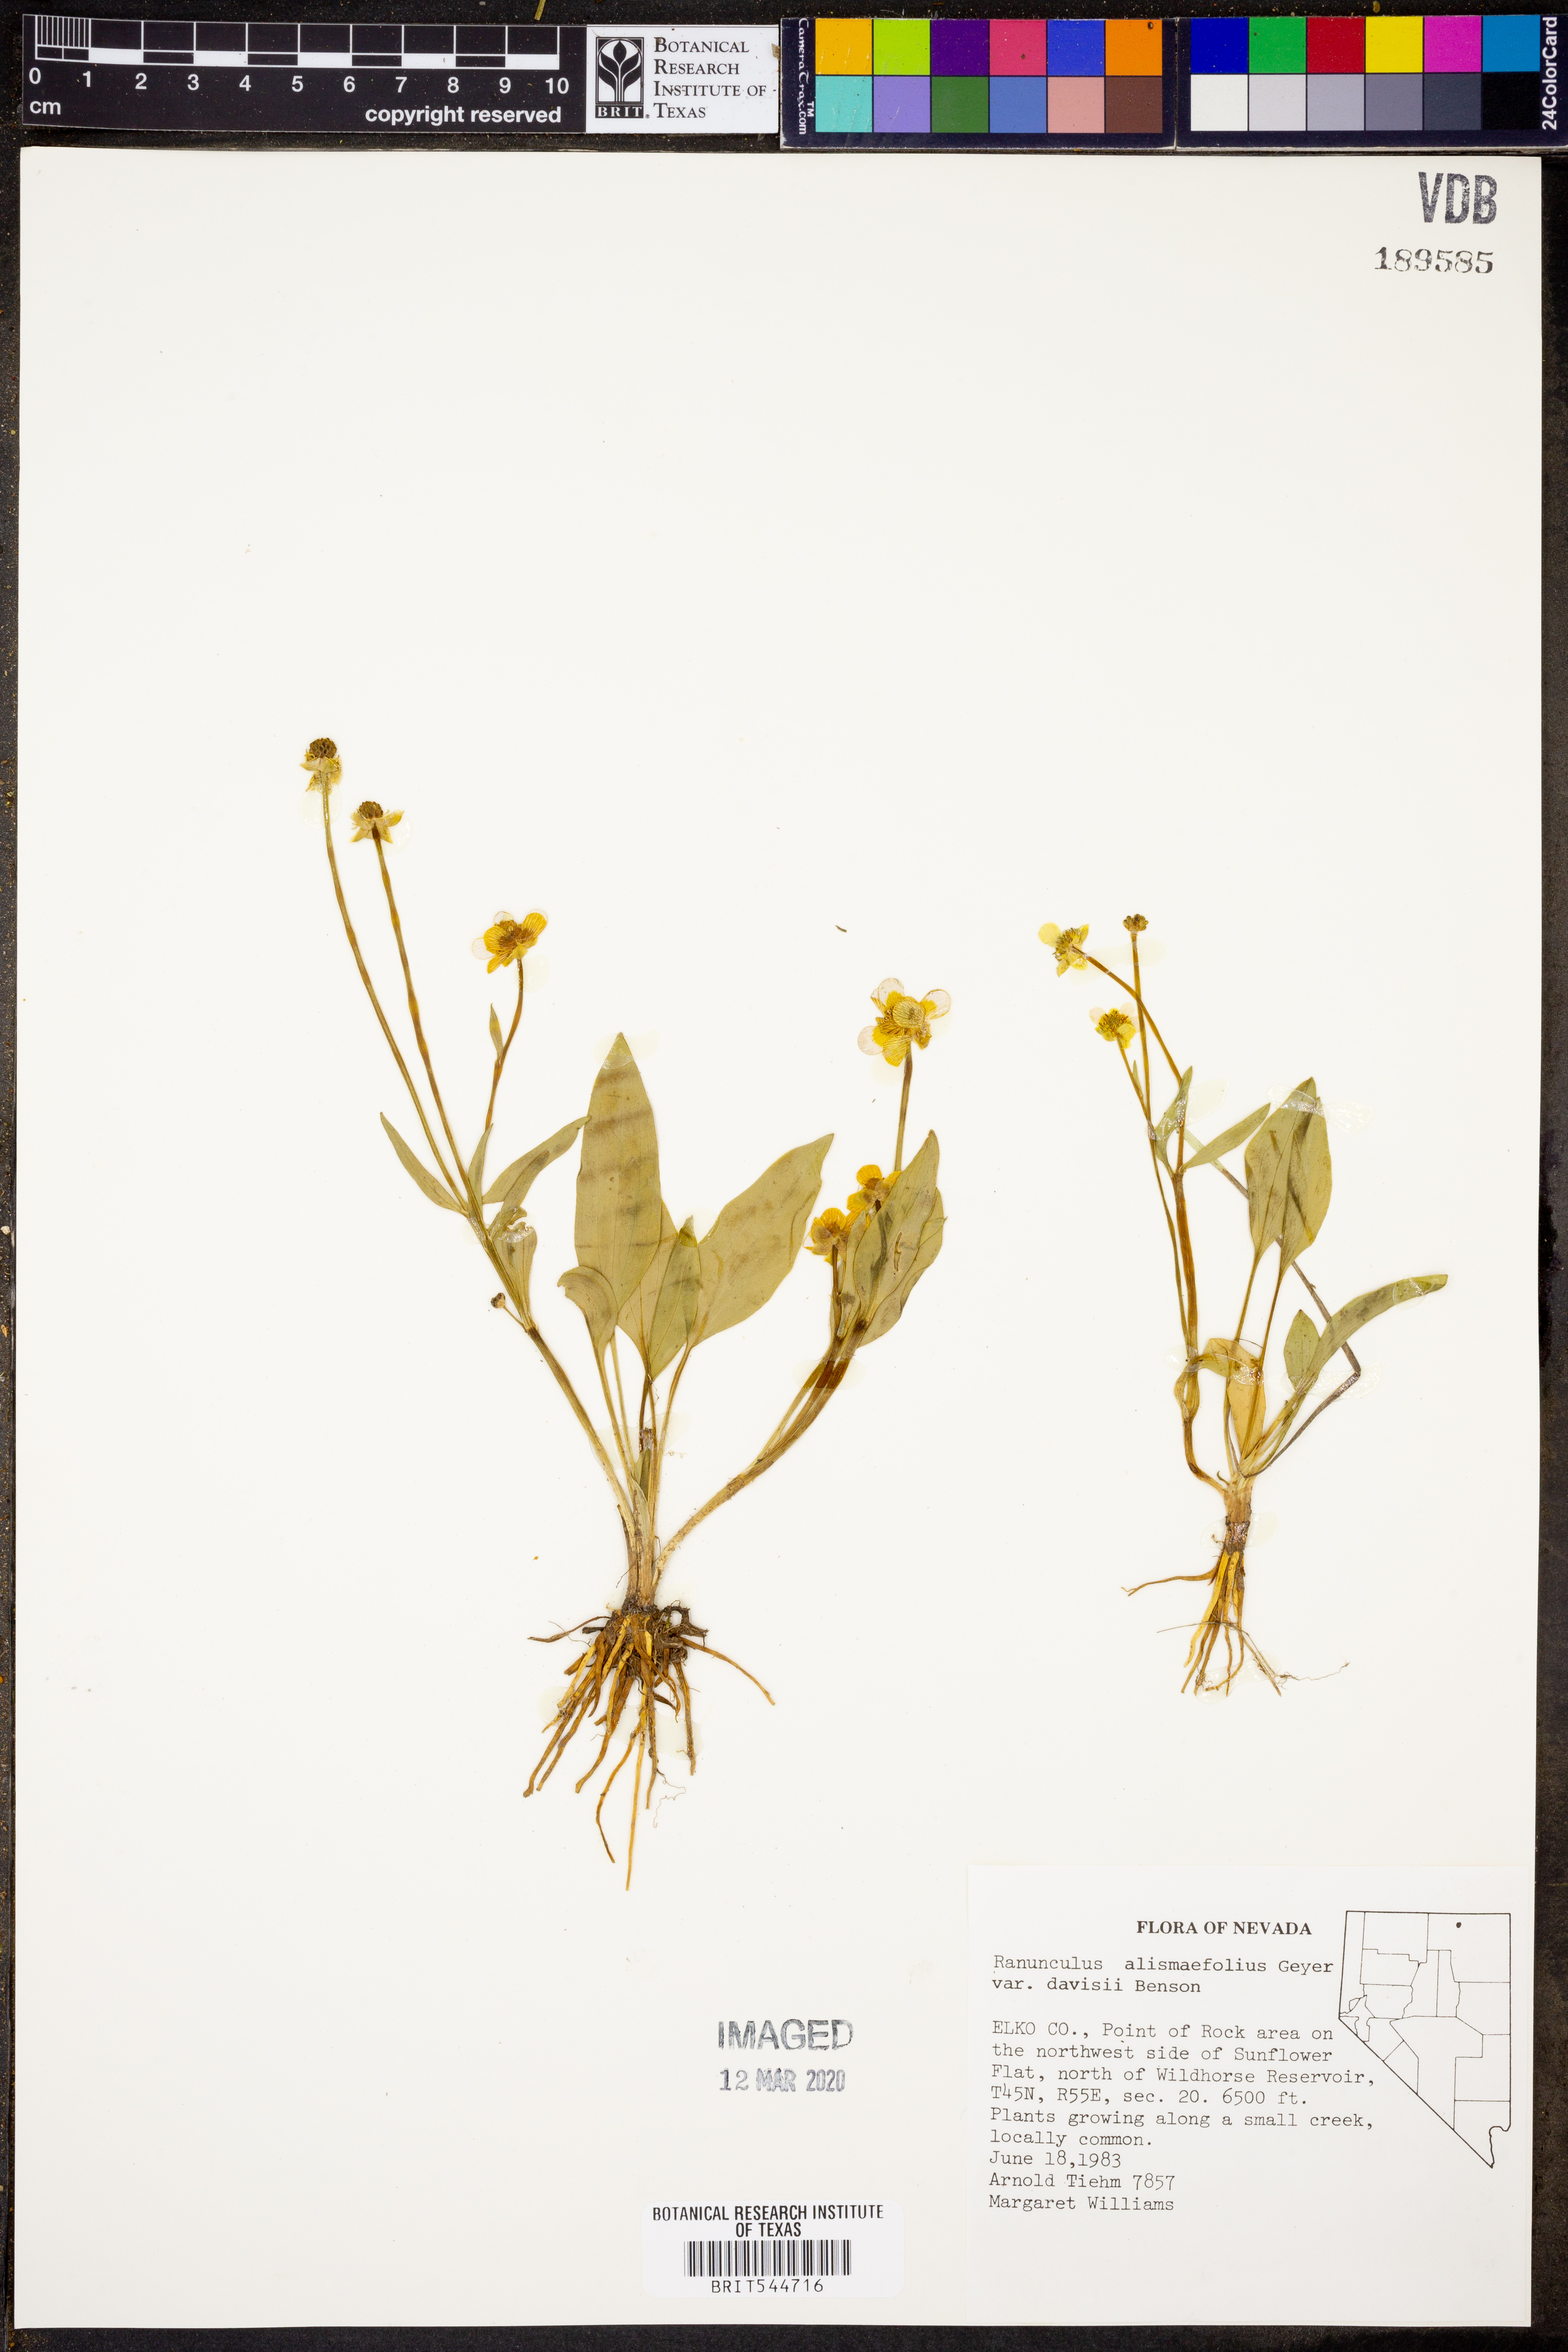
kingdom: Plantae
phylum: Tracheophyta
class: Magnoliopsida
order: Ranunculales
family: Ranunculaceae
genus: Ranunculus
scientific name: Ranunculus alismifolius
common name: Plantain-leaved buttercup
